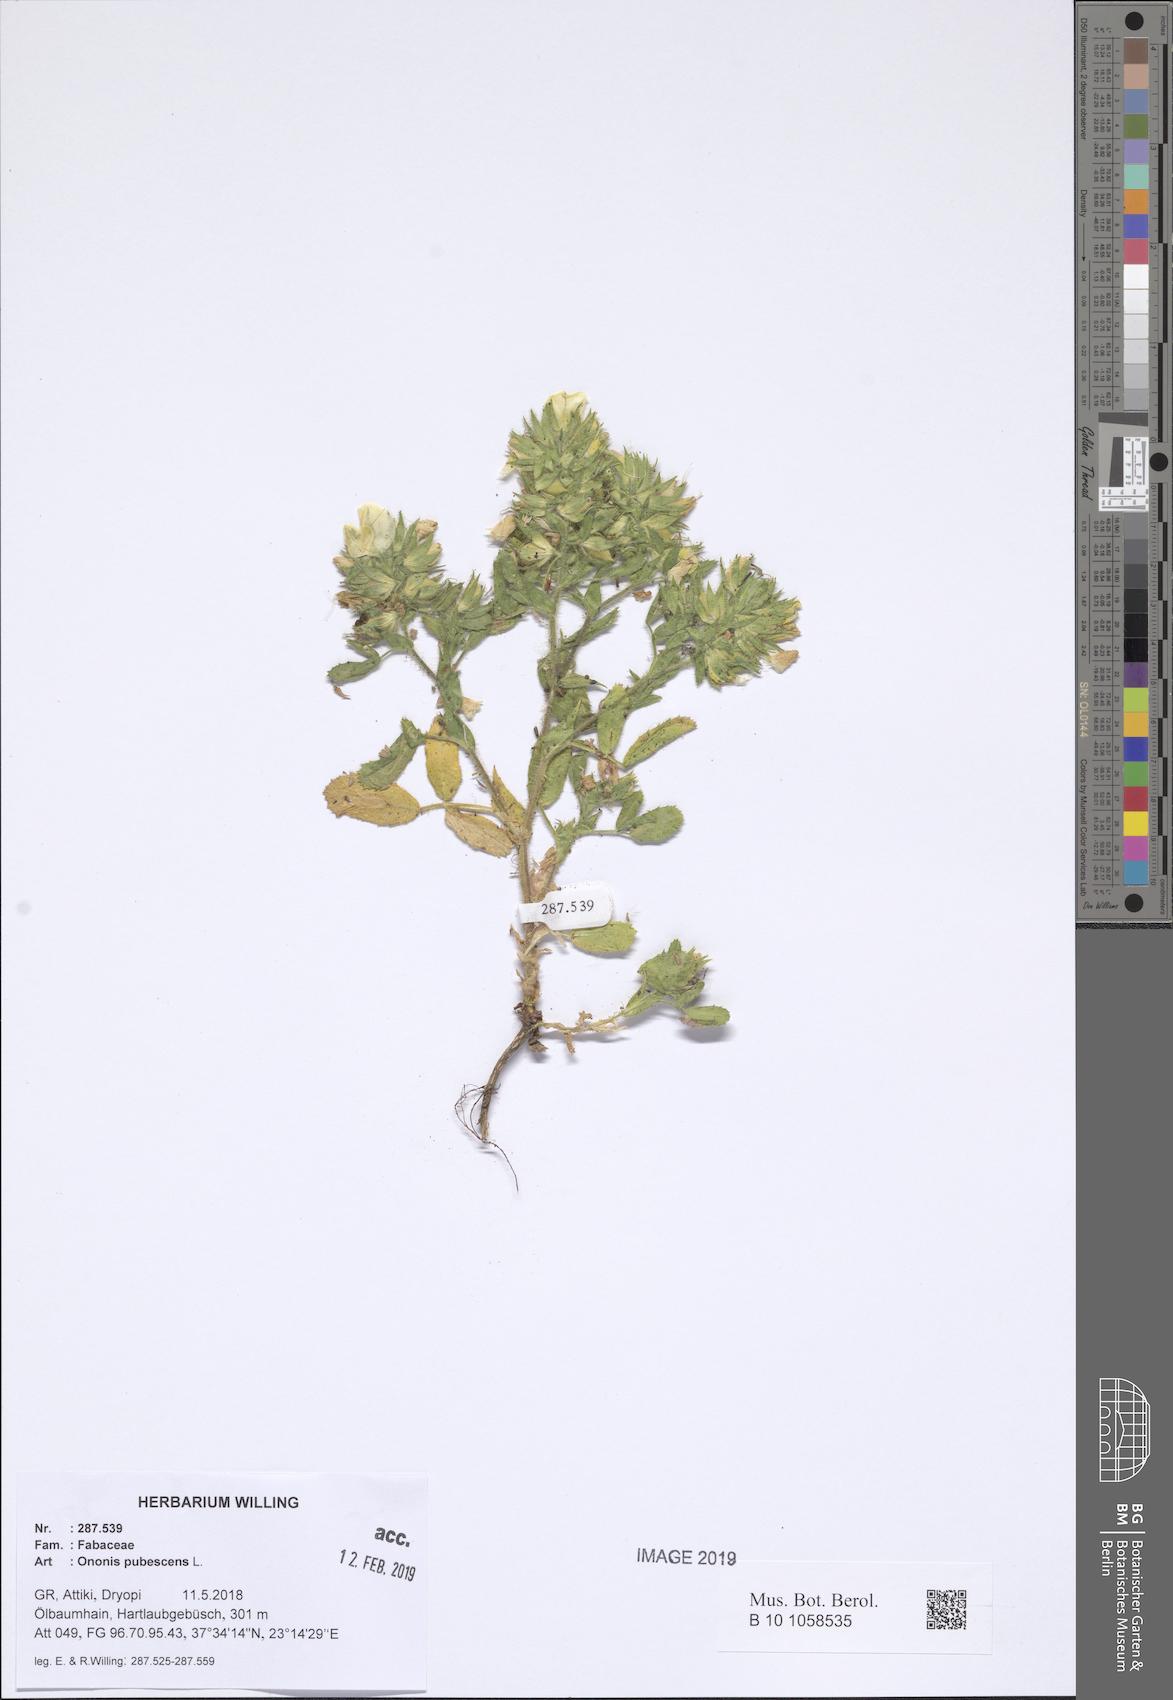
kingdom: Plantae
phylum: Tracheophyta
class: Magnoliopsida
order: Fabales
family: Fabaceae
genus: Ononis
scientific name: Ononis pubescens
